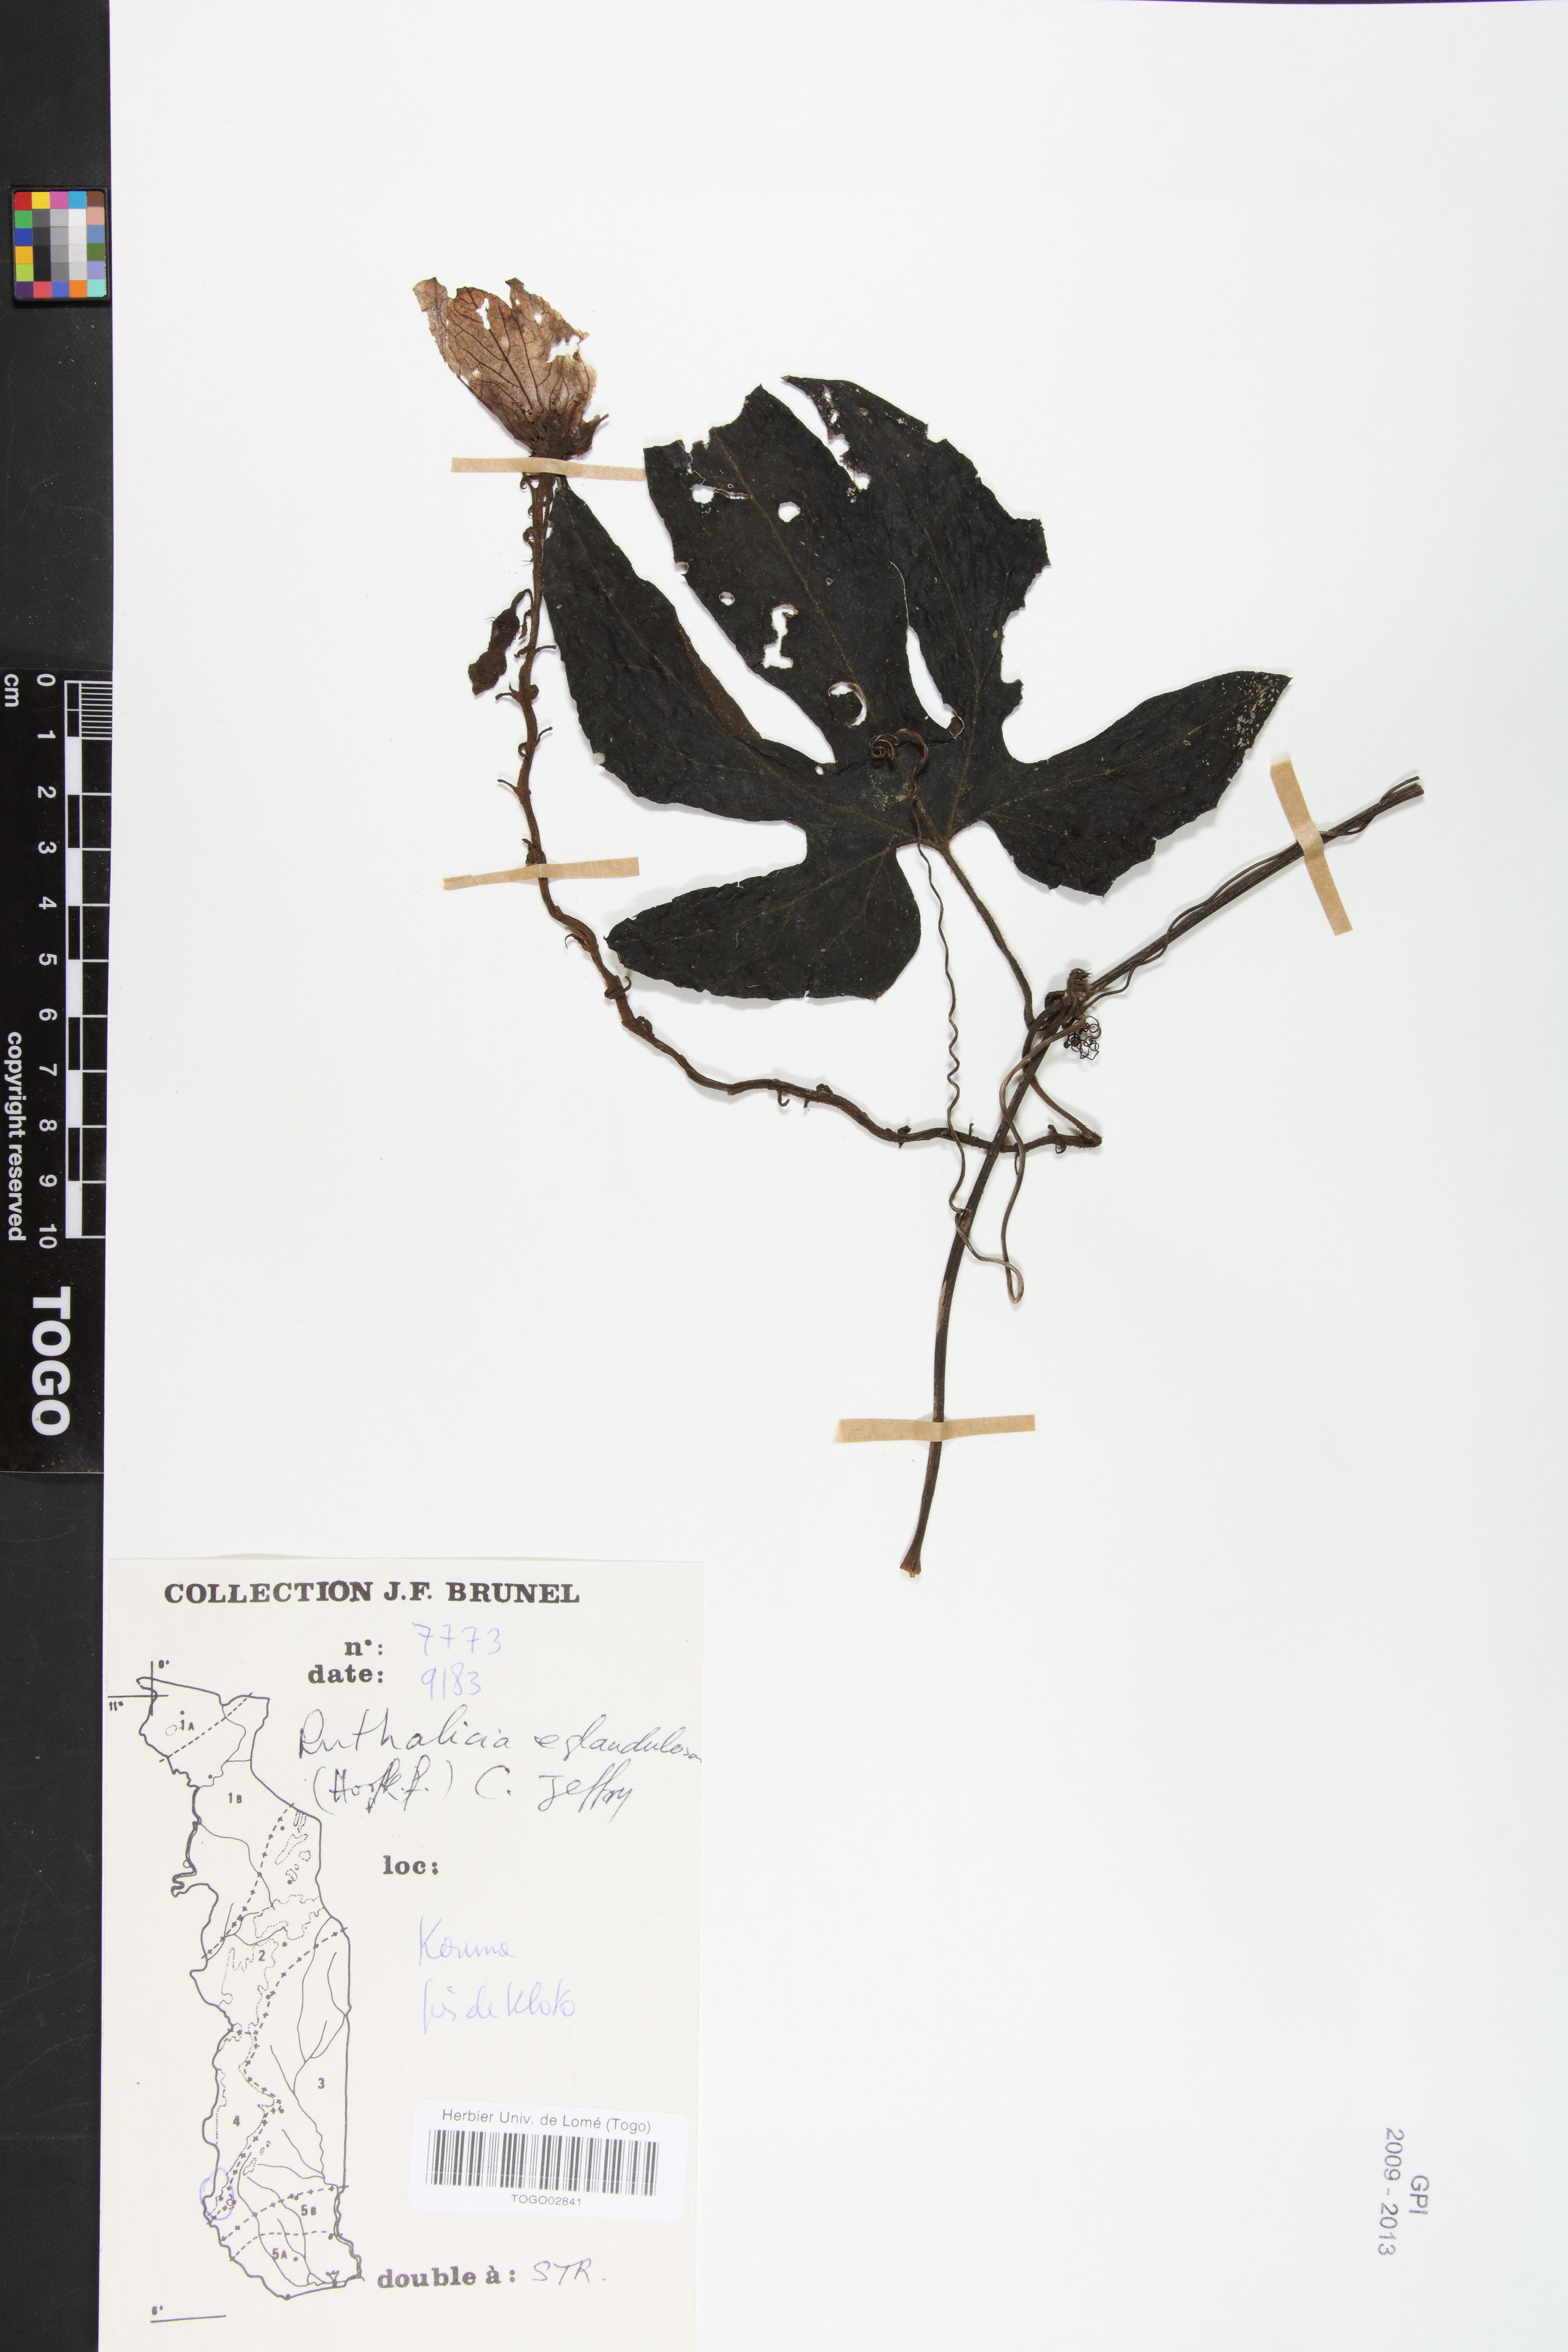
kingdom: Plantae
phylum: Tracheophyta
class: Magnoliopsida
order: Cucurbitales
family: Cucurbitaceae
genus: Ruthalicia
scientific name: Ruthalicia eglandulosa
